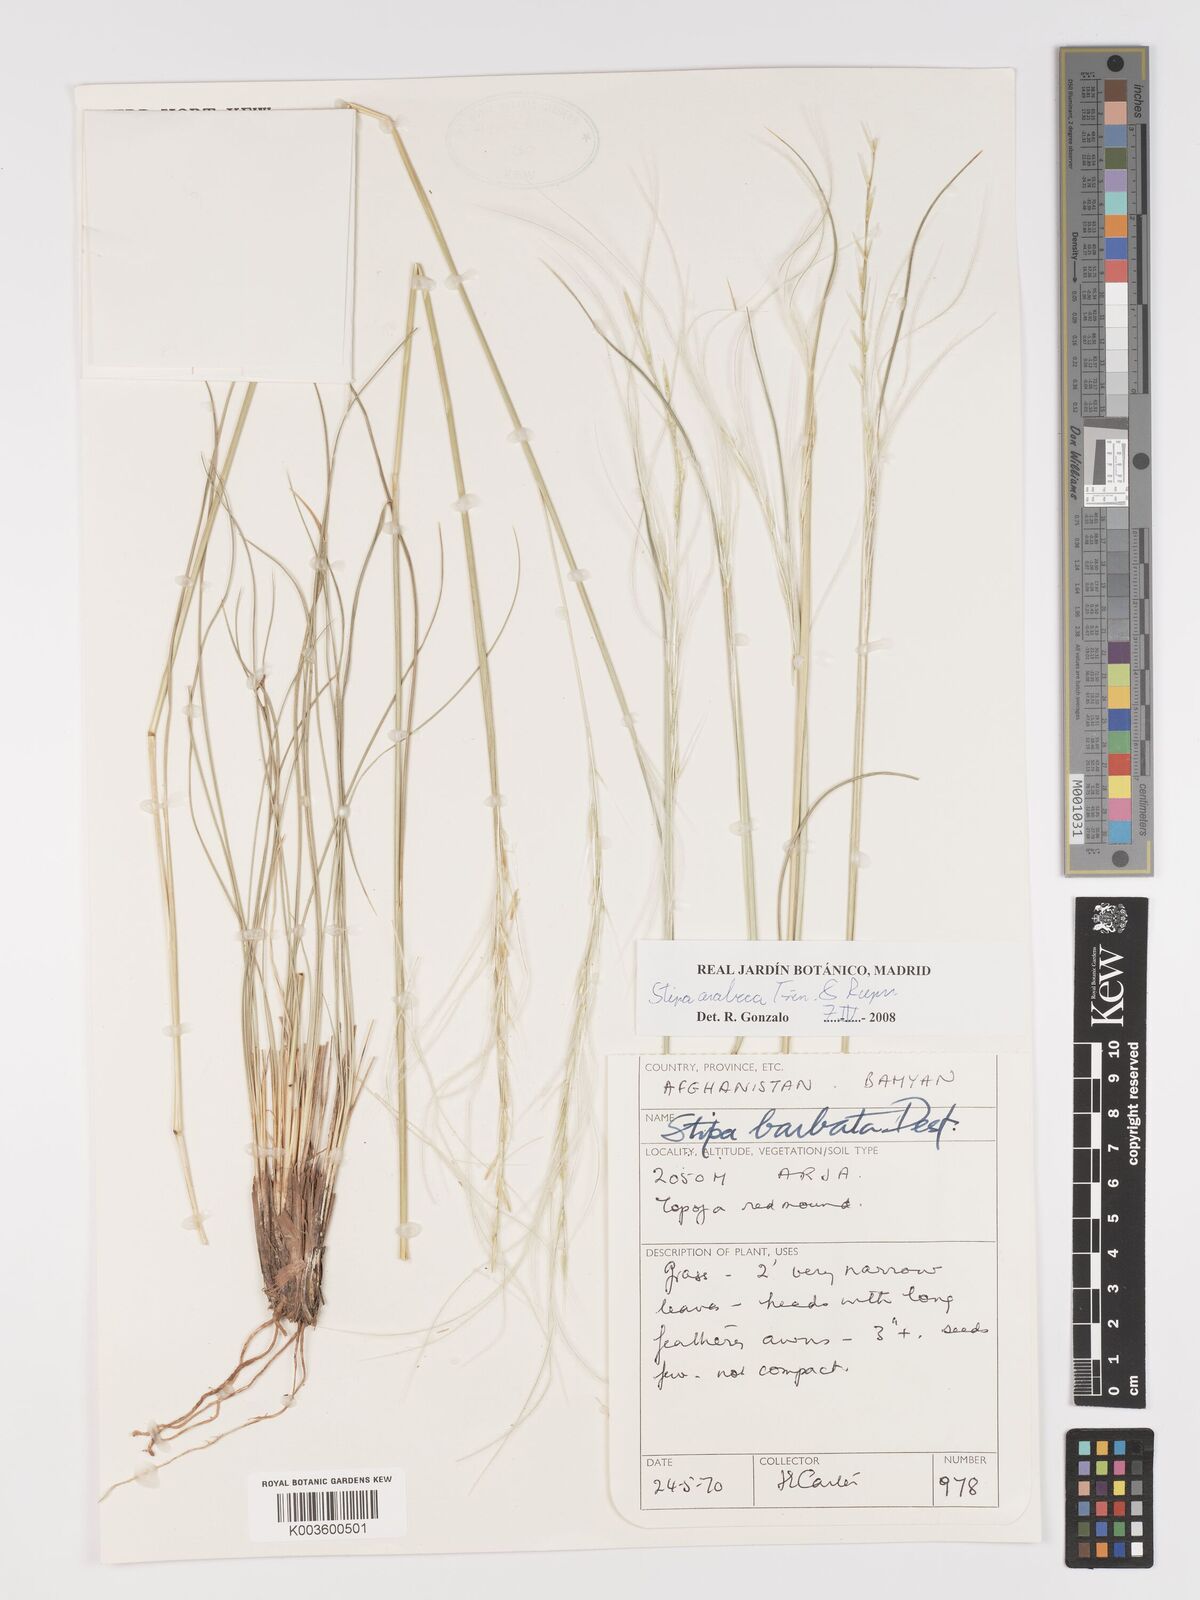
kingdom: Plantae
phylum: Tracheophyta
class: Liliopsida
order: Poales
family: Poaceae
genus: Stipa
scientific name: Stipa arabica
